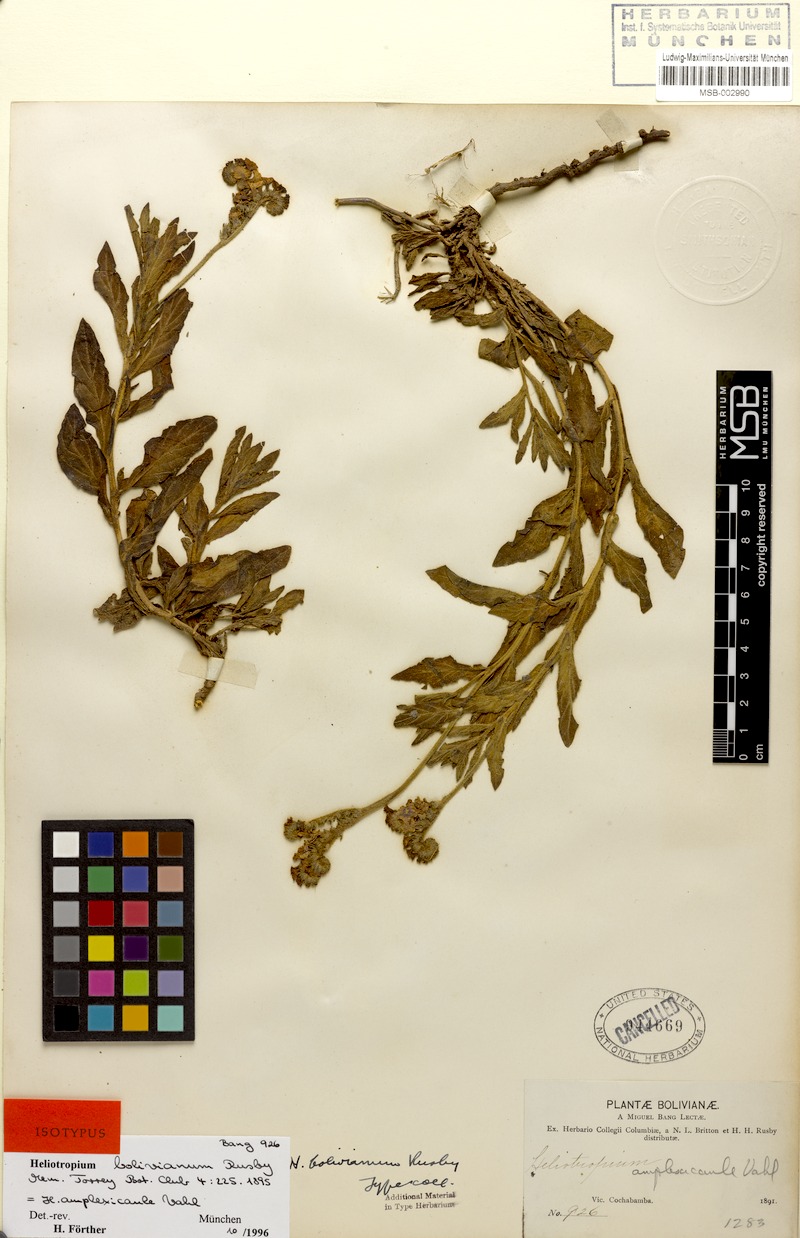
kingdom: Plantae
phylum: Tracheophyta
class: Magnoliopsida
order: Boraginales
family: Heliotropiaceae
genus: Heliotropium
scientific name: Heliotropium amplexicaule
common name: Clasping heliotrope
